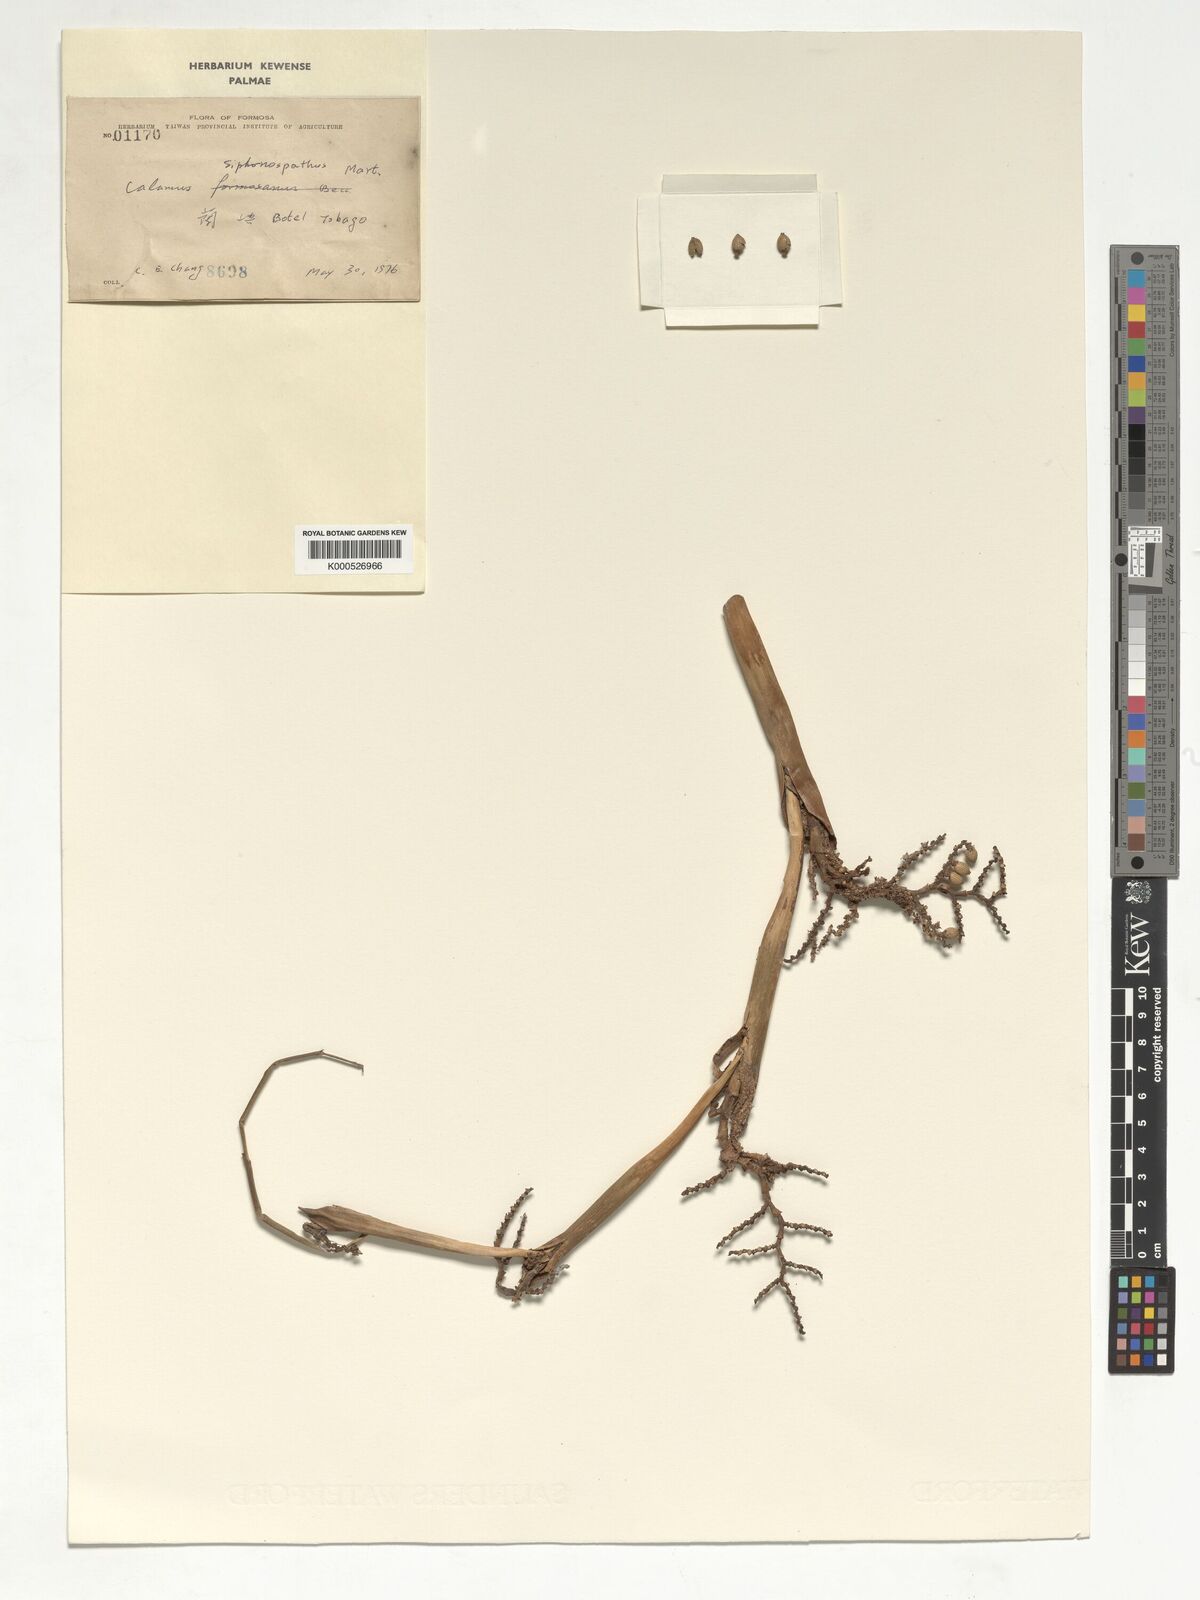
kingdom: Plantae
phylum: Tracheophyta
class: Liliopsida
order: Arecales
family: Arecaceae
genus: Calamus
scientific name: Calamus siphonospathus
